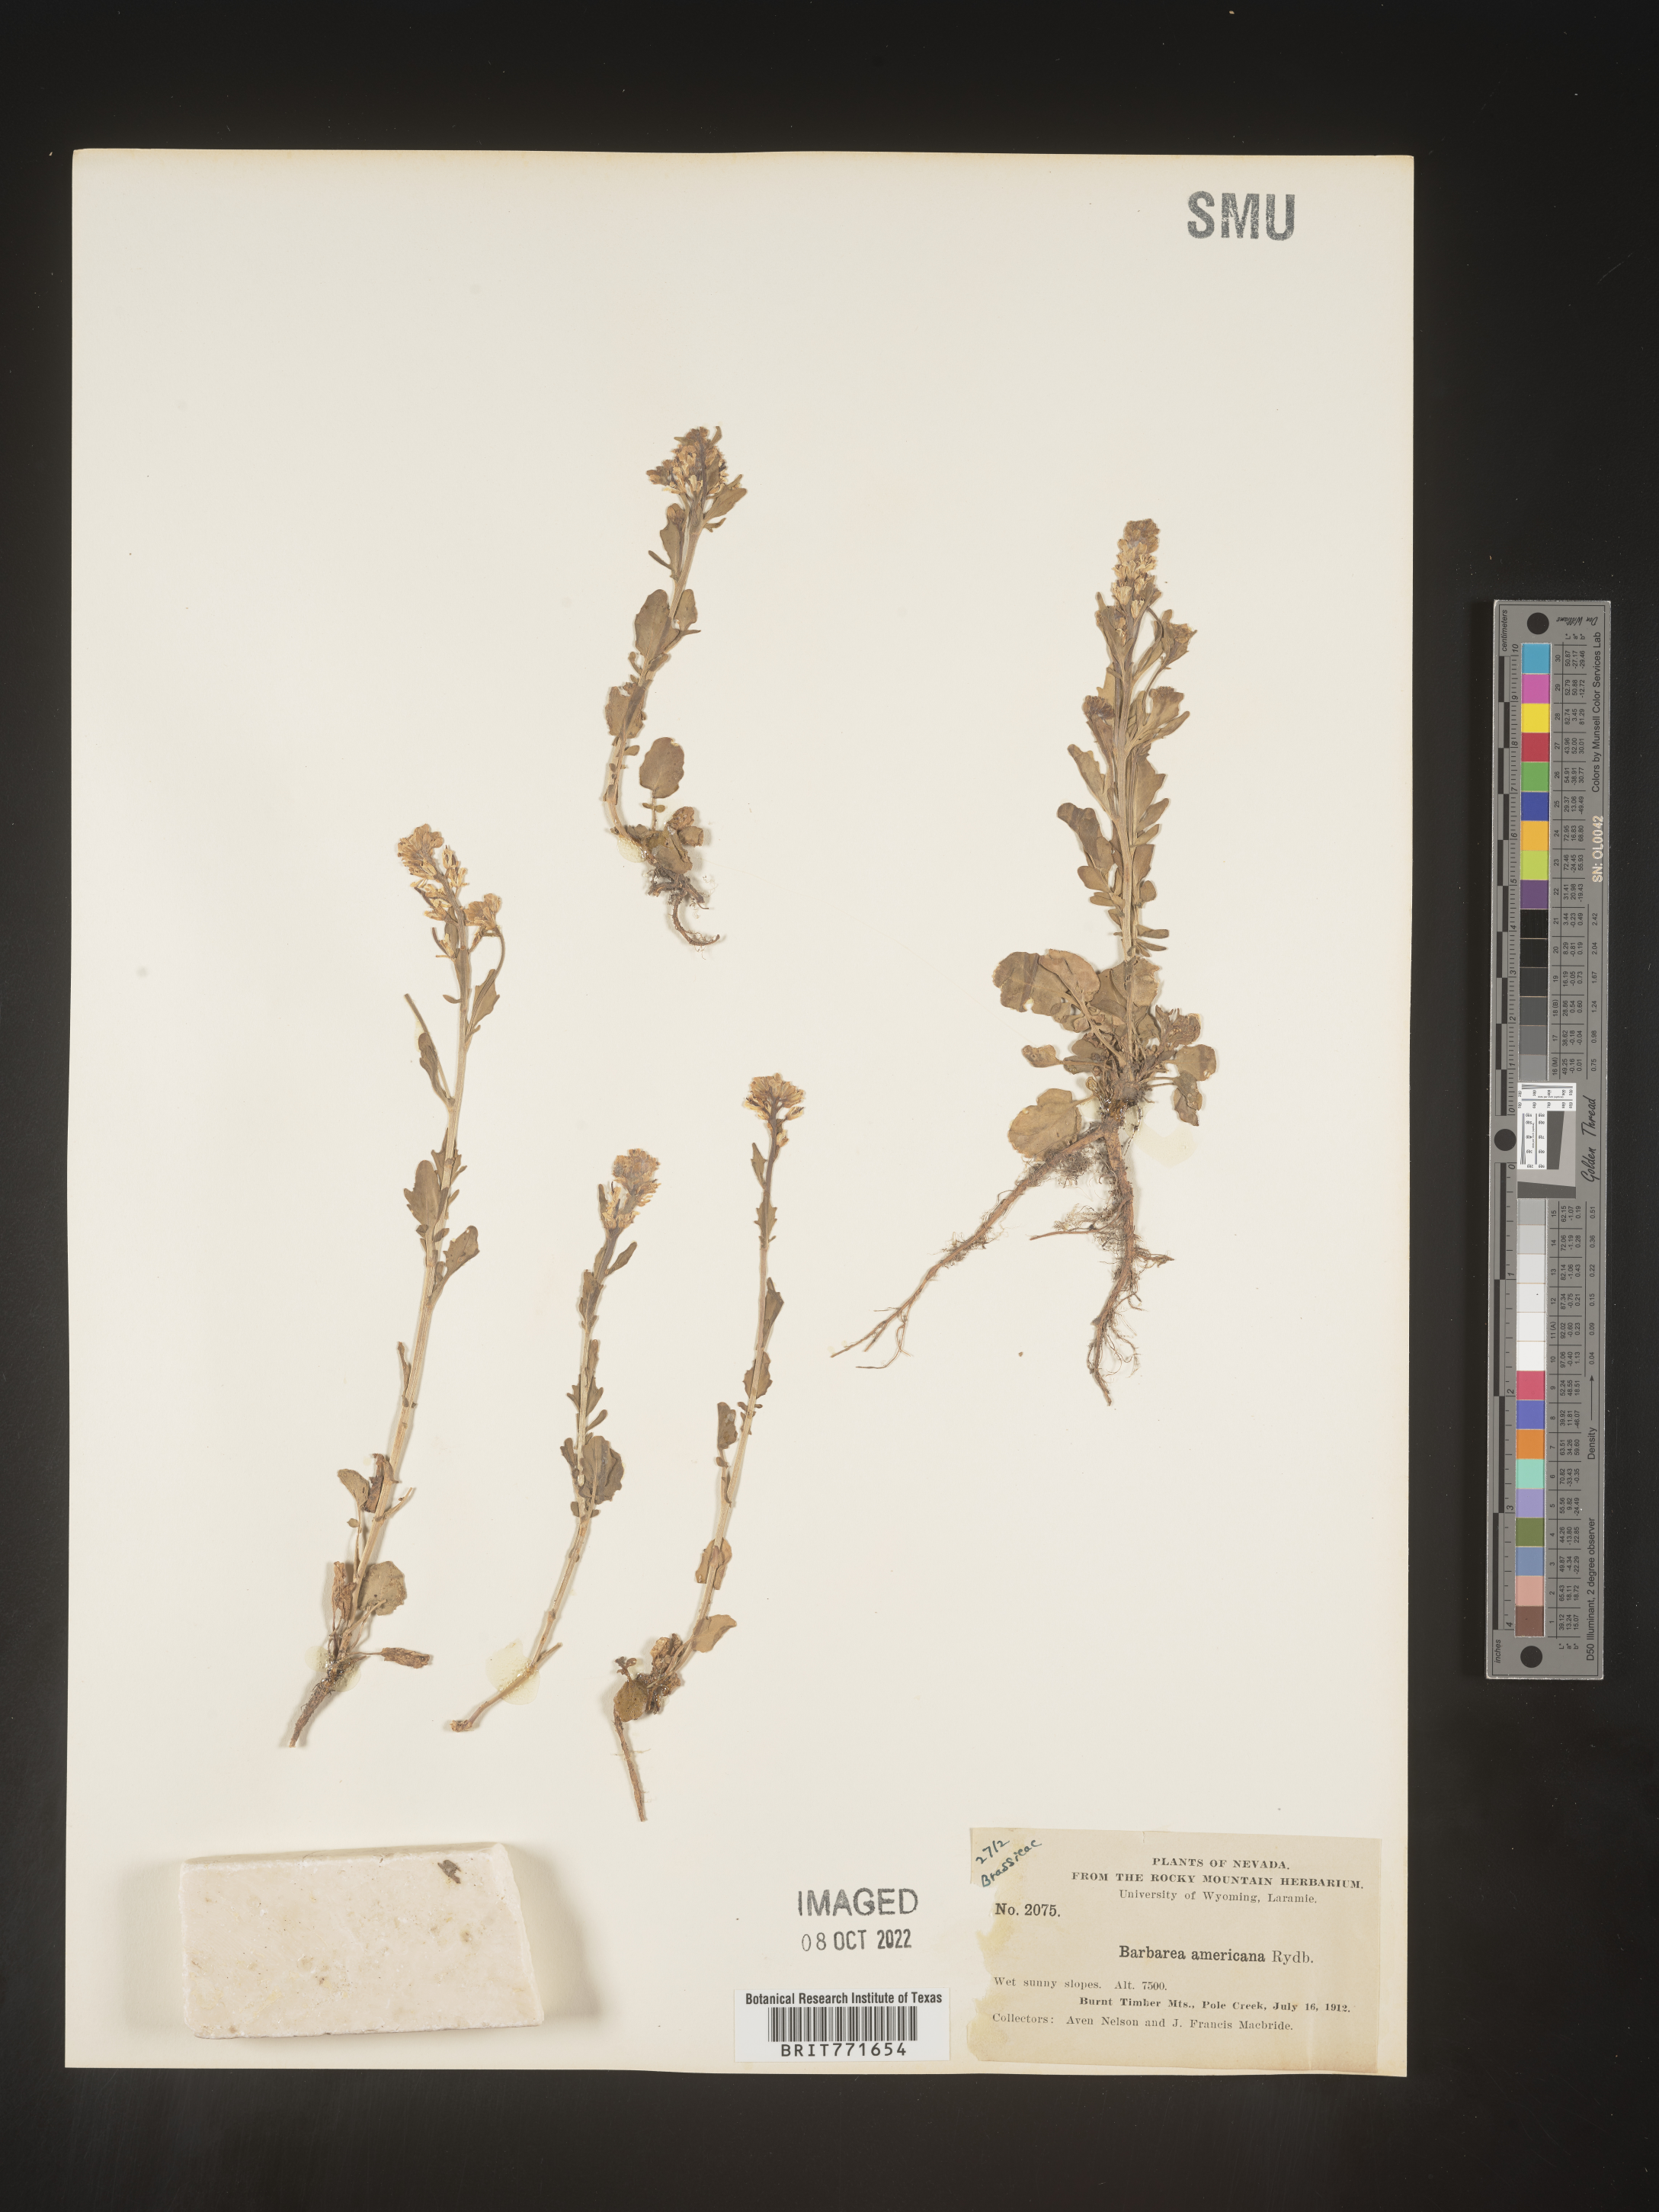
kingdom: Plantae
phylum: Tracheophyta
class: Magnoliopsida
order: Brassicales
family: Brassicaceae
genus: Barbarea
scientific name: Barbarea
